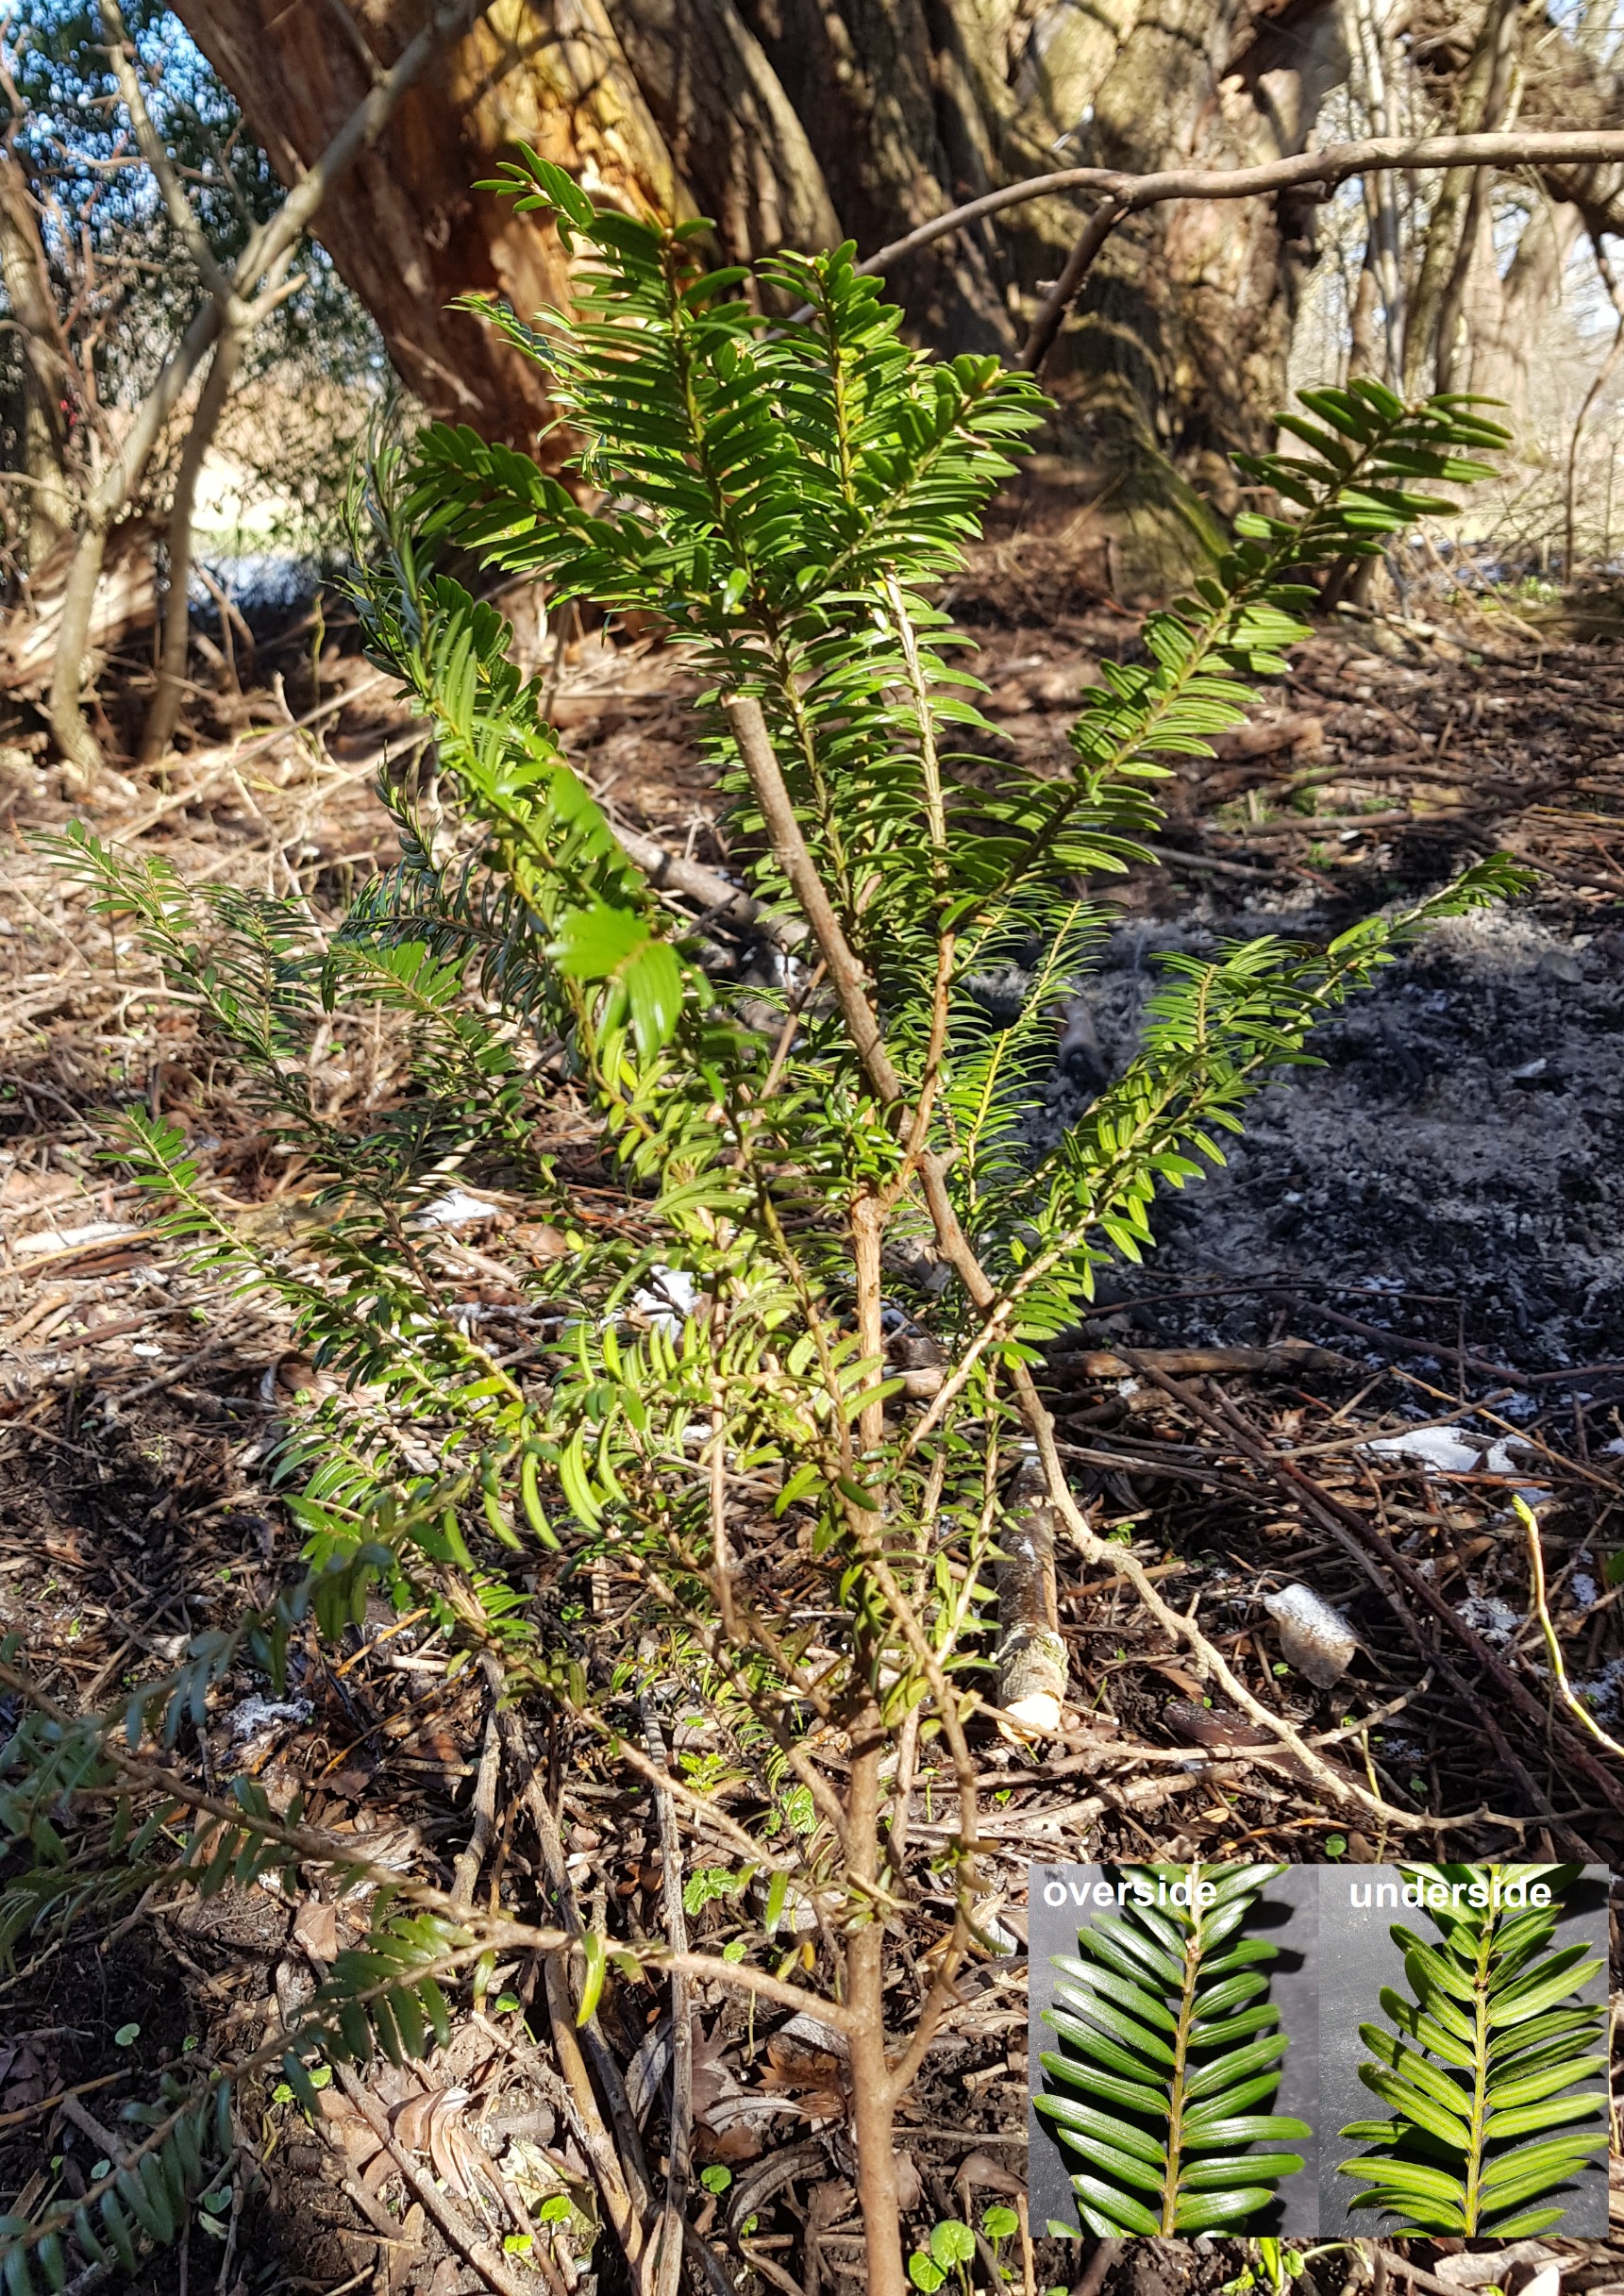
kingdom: Plantae
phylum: Tracheophyta
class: Pinopsida
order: Pinales
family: Taxaceae
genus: Taxus
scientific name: Taxus baccata
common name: Almindelig taks
